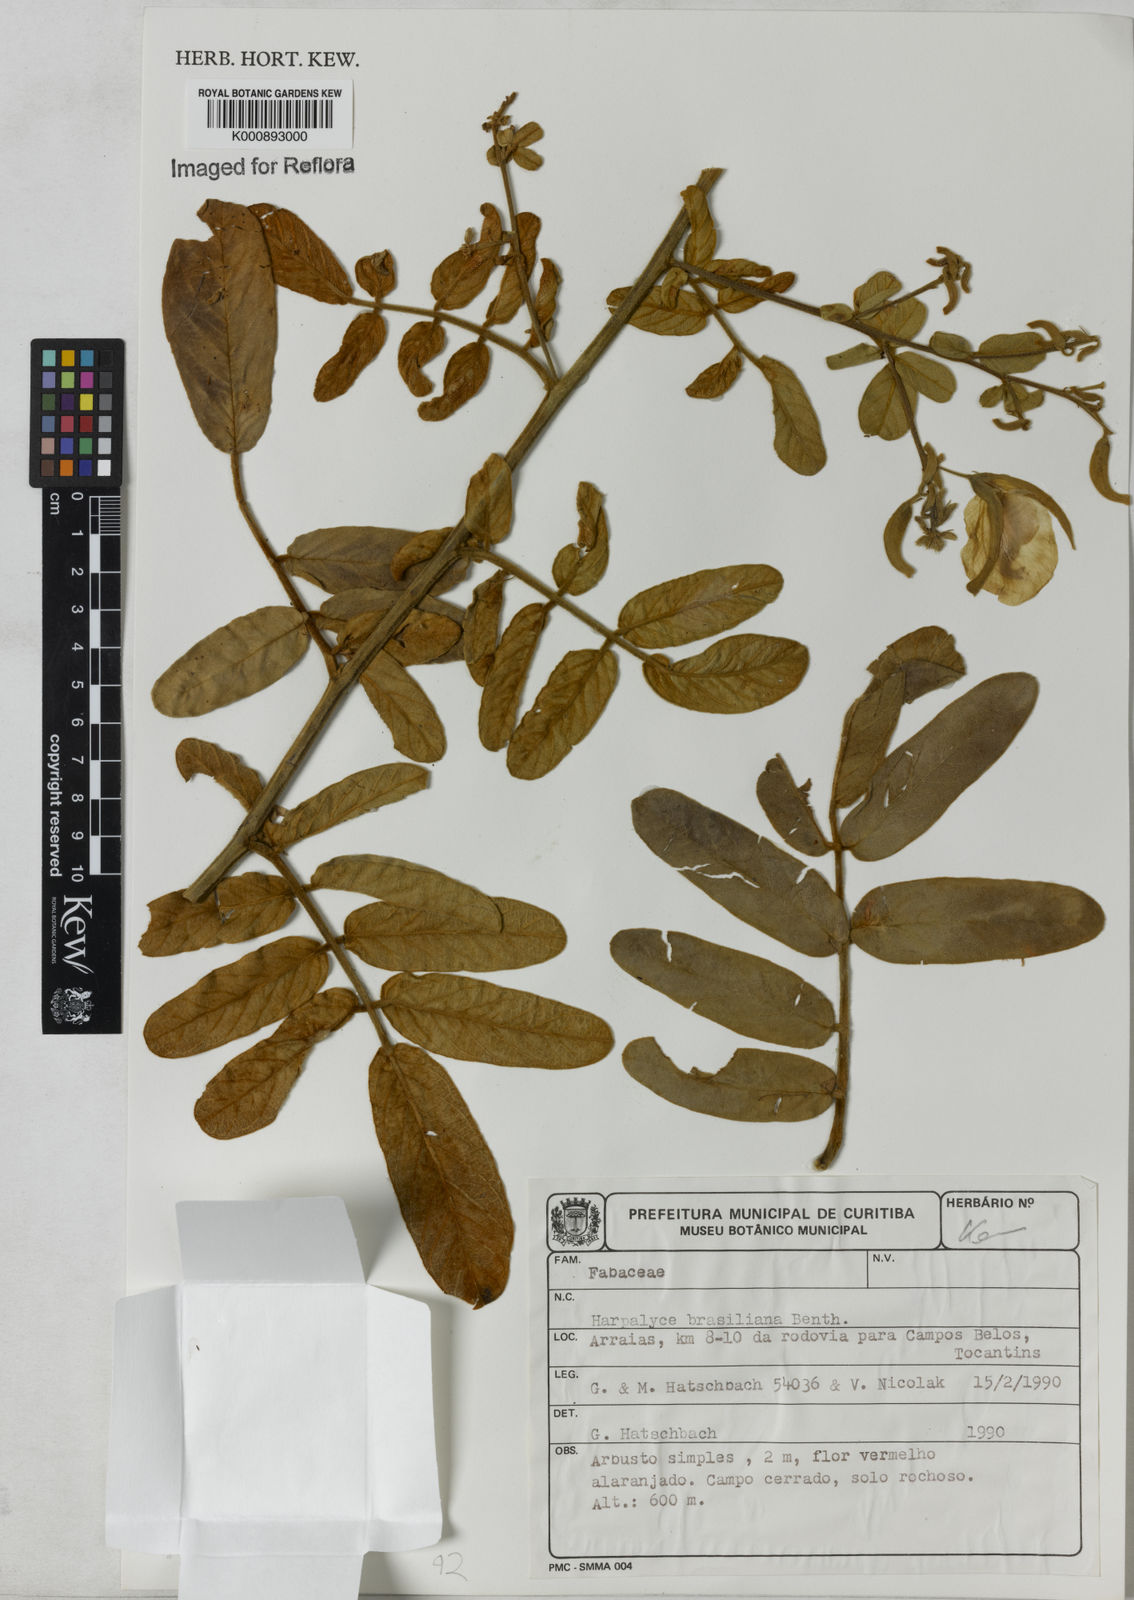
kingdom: Plantae
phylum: Tracheophyta
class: Magnoliopsida
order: Fabales
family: Fabaceae
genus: Harpalyce
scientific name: Harpalyce brasiliana
